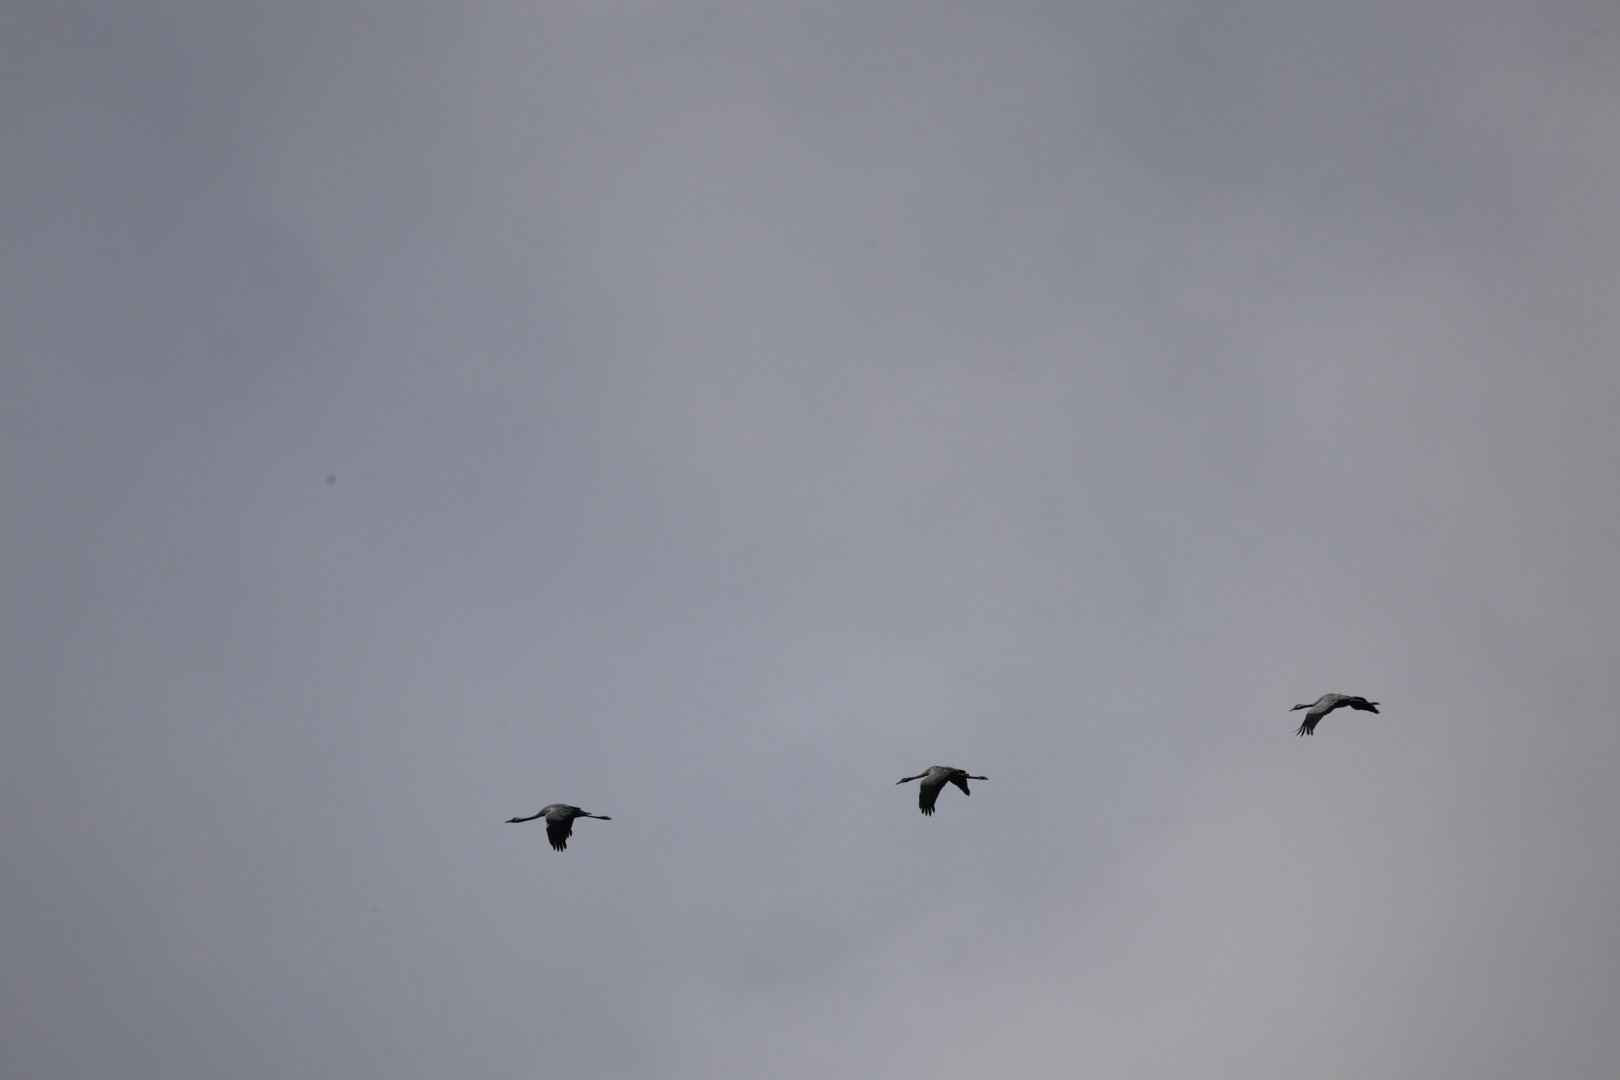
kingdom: Animalia
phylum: Chordata
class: Aves
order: Gruiformes
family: Gruidae
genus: Grus
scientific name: Grus grus
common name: Trane
